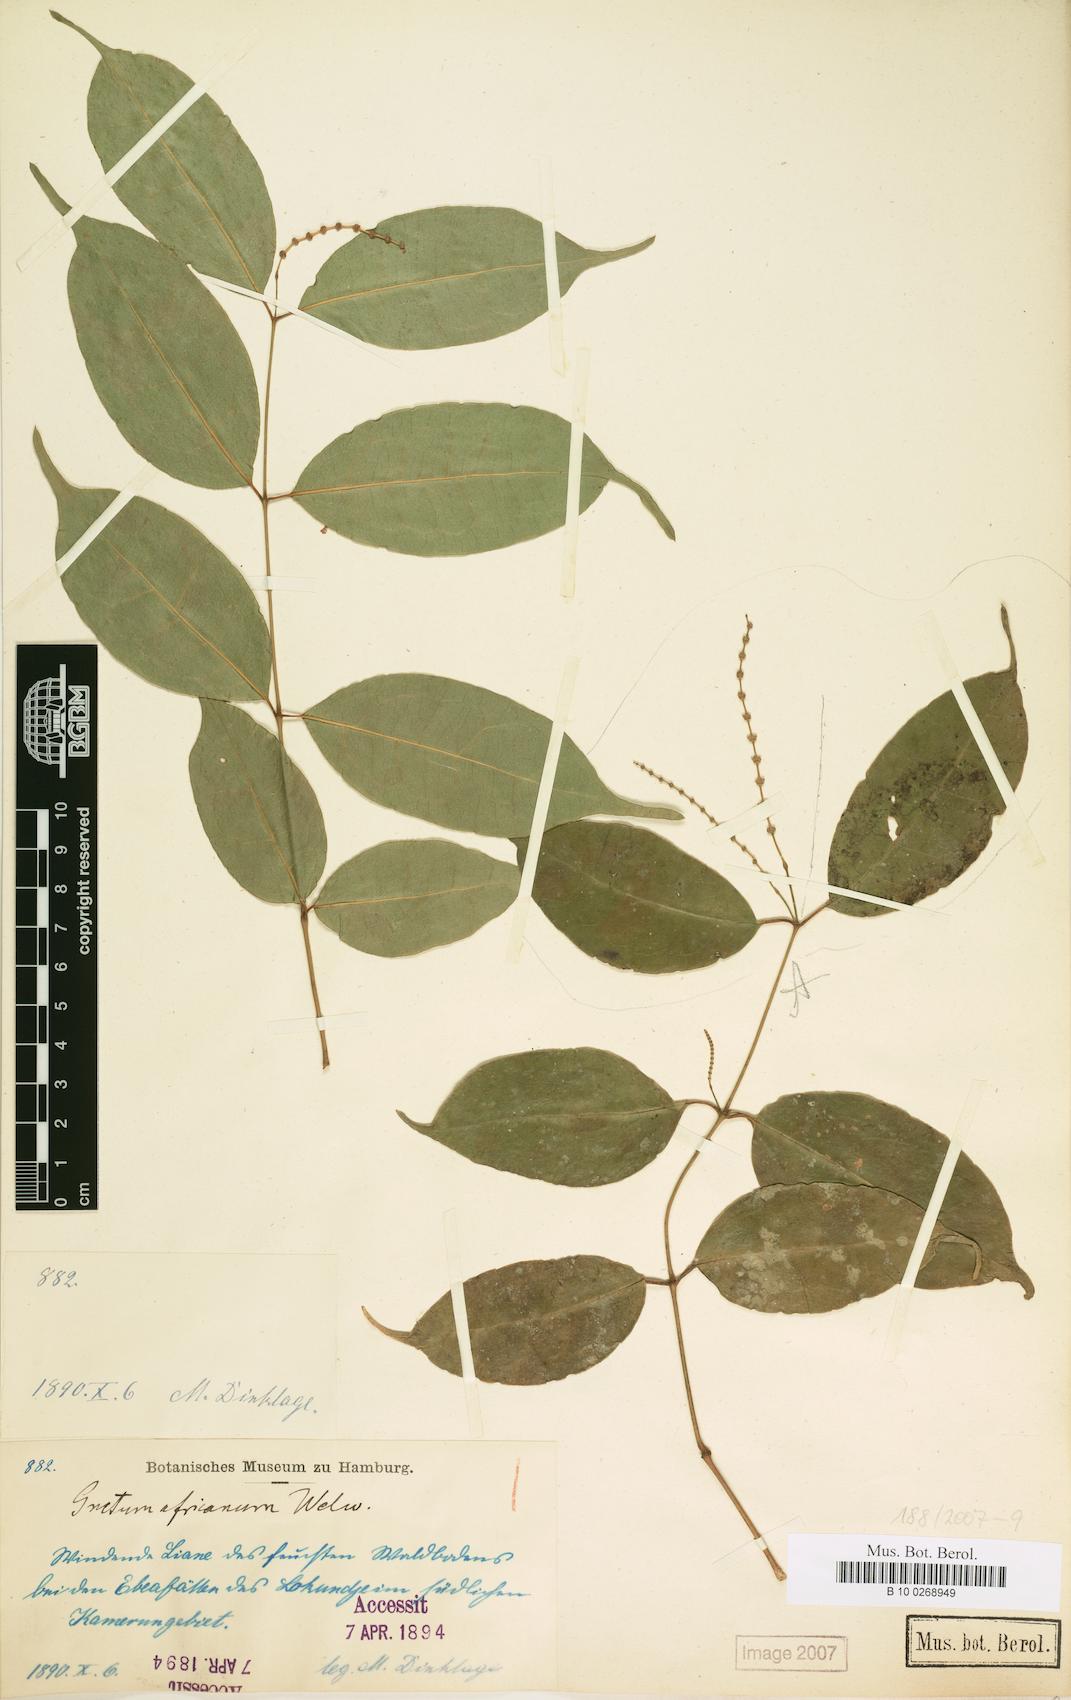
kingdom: Plantae
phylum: Tracheophyta
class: Gnetopsida
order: Gnetales
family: Gnetaceae
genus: Gnetum
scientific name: Gnetum africanum
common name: Eru
